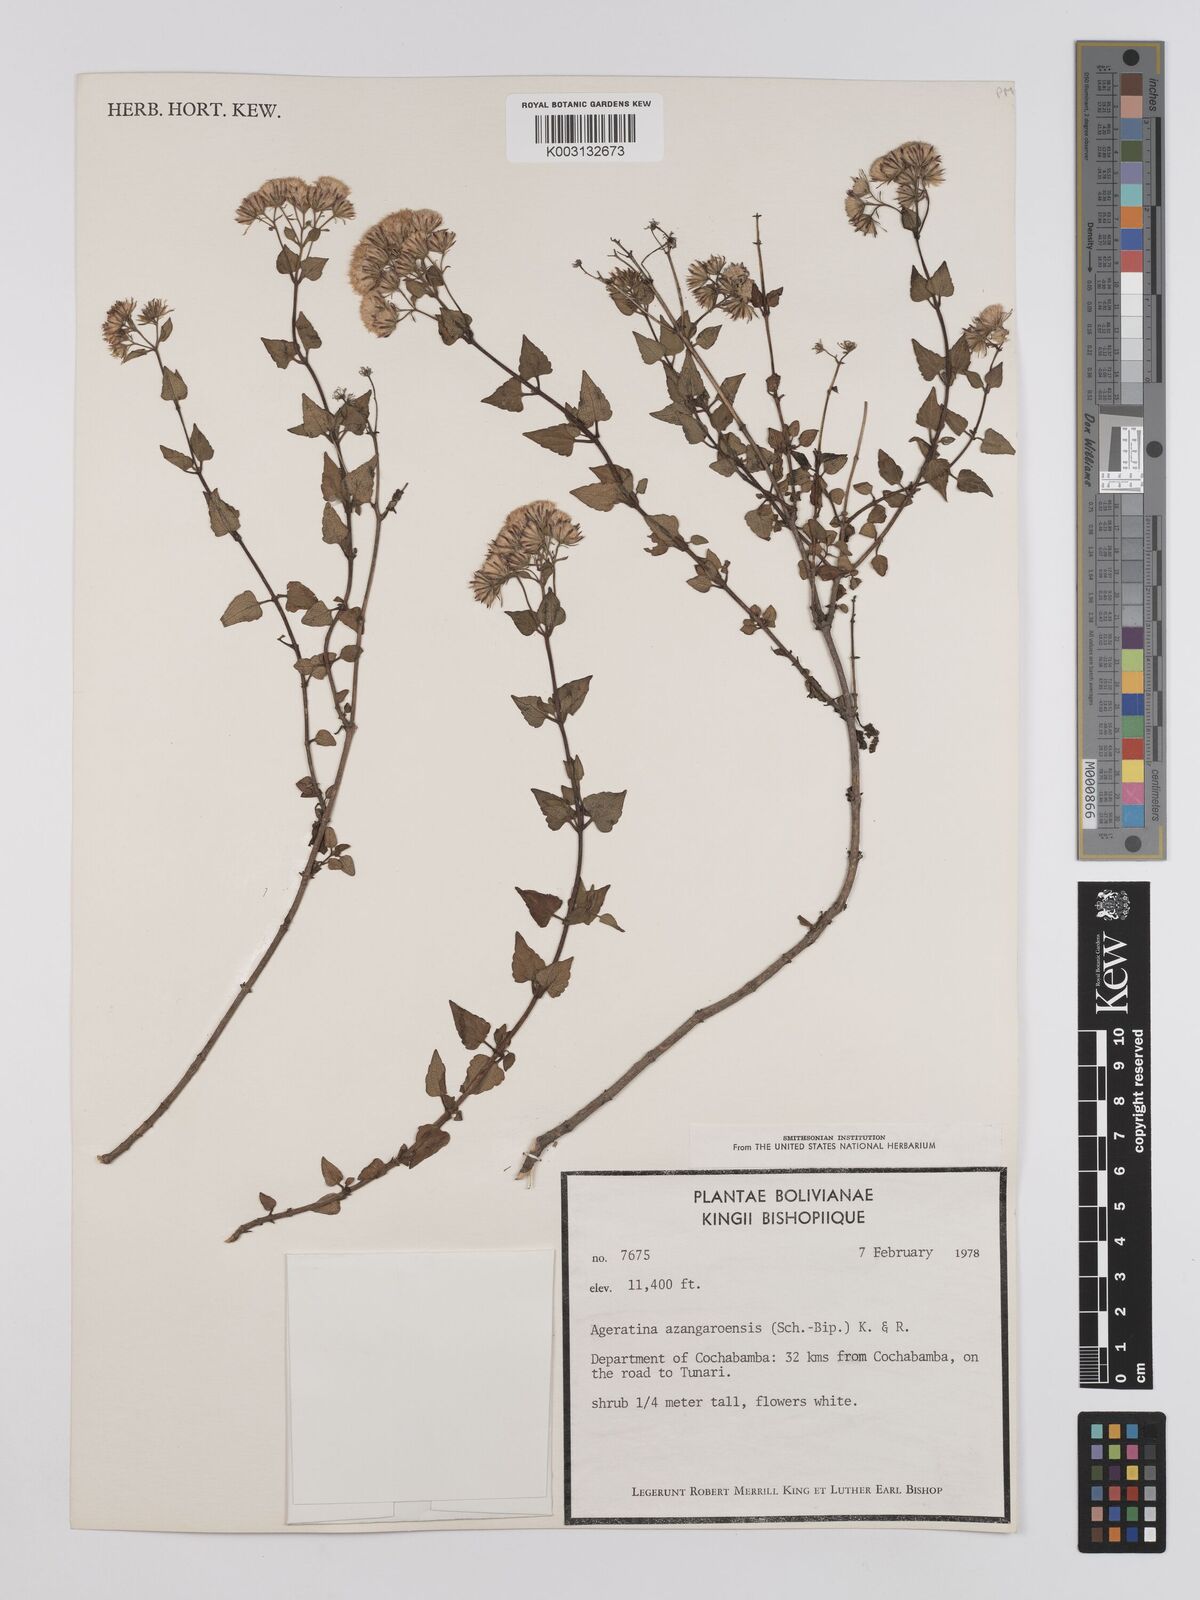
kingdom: Plantae
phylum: Tracheophyta
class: Magnoliopsida
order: Asterales
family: Asteraceae
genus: Ageratina
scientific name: Ageratina glechonophylla
